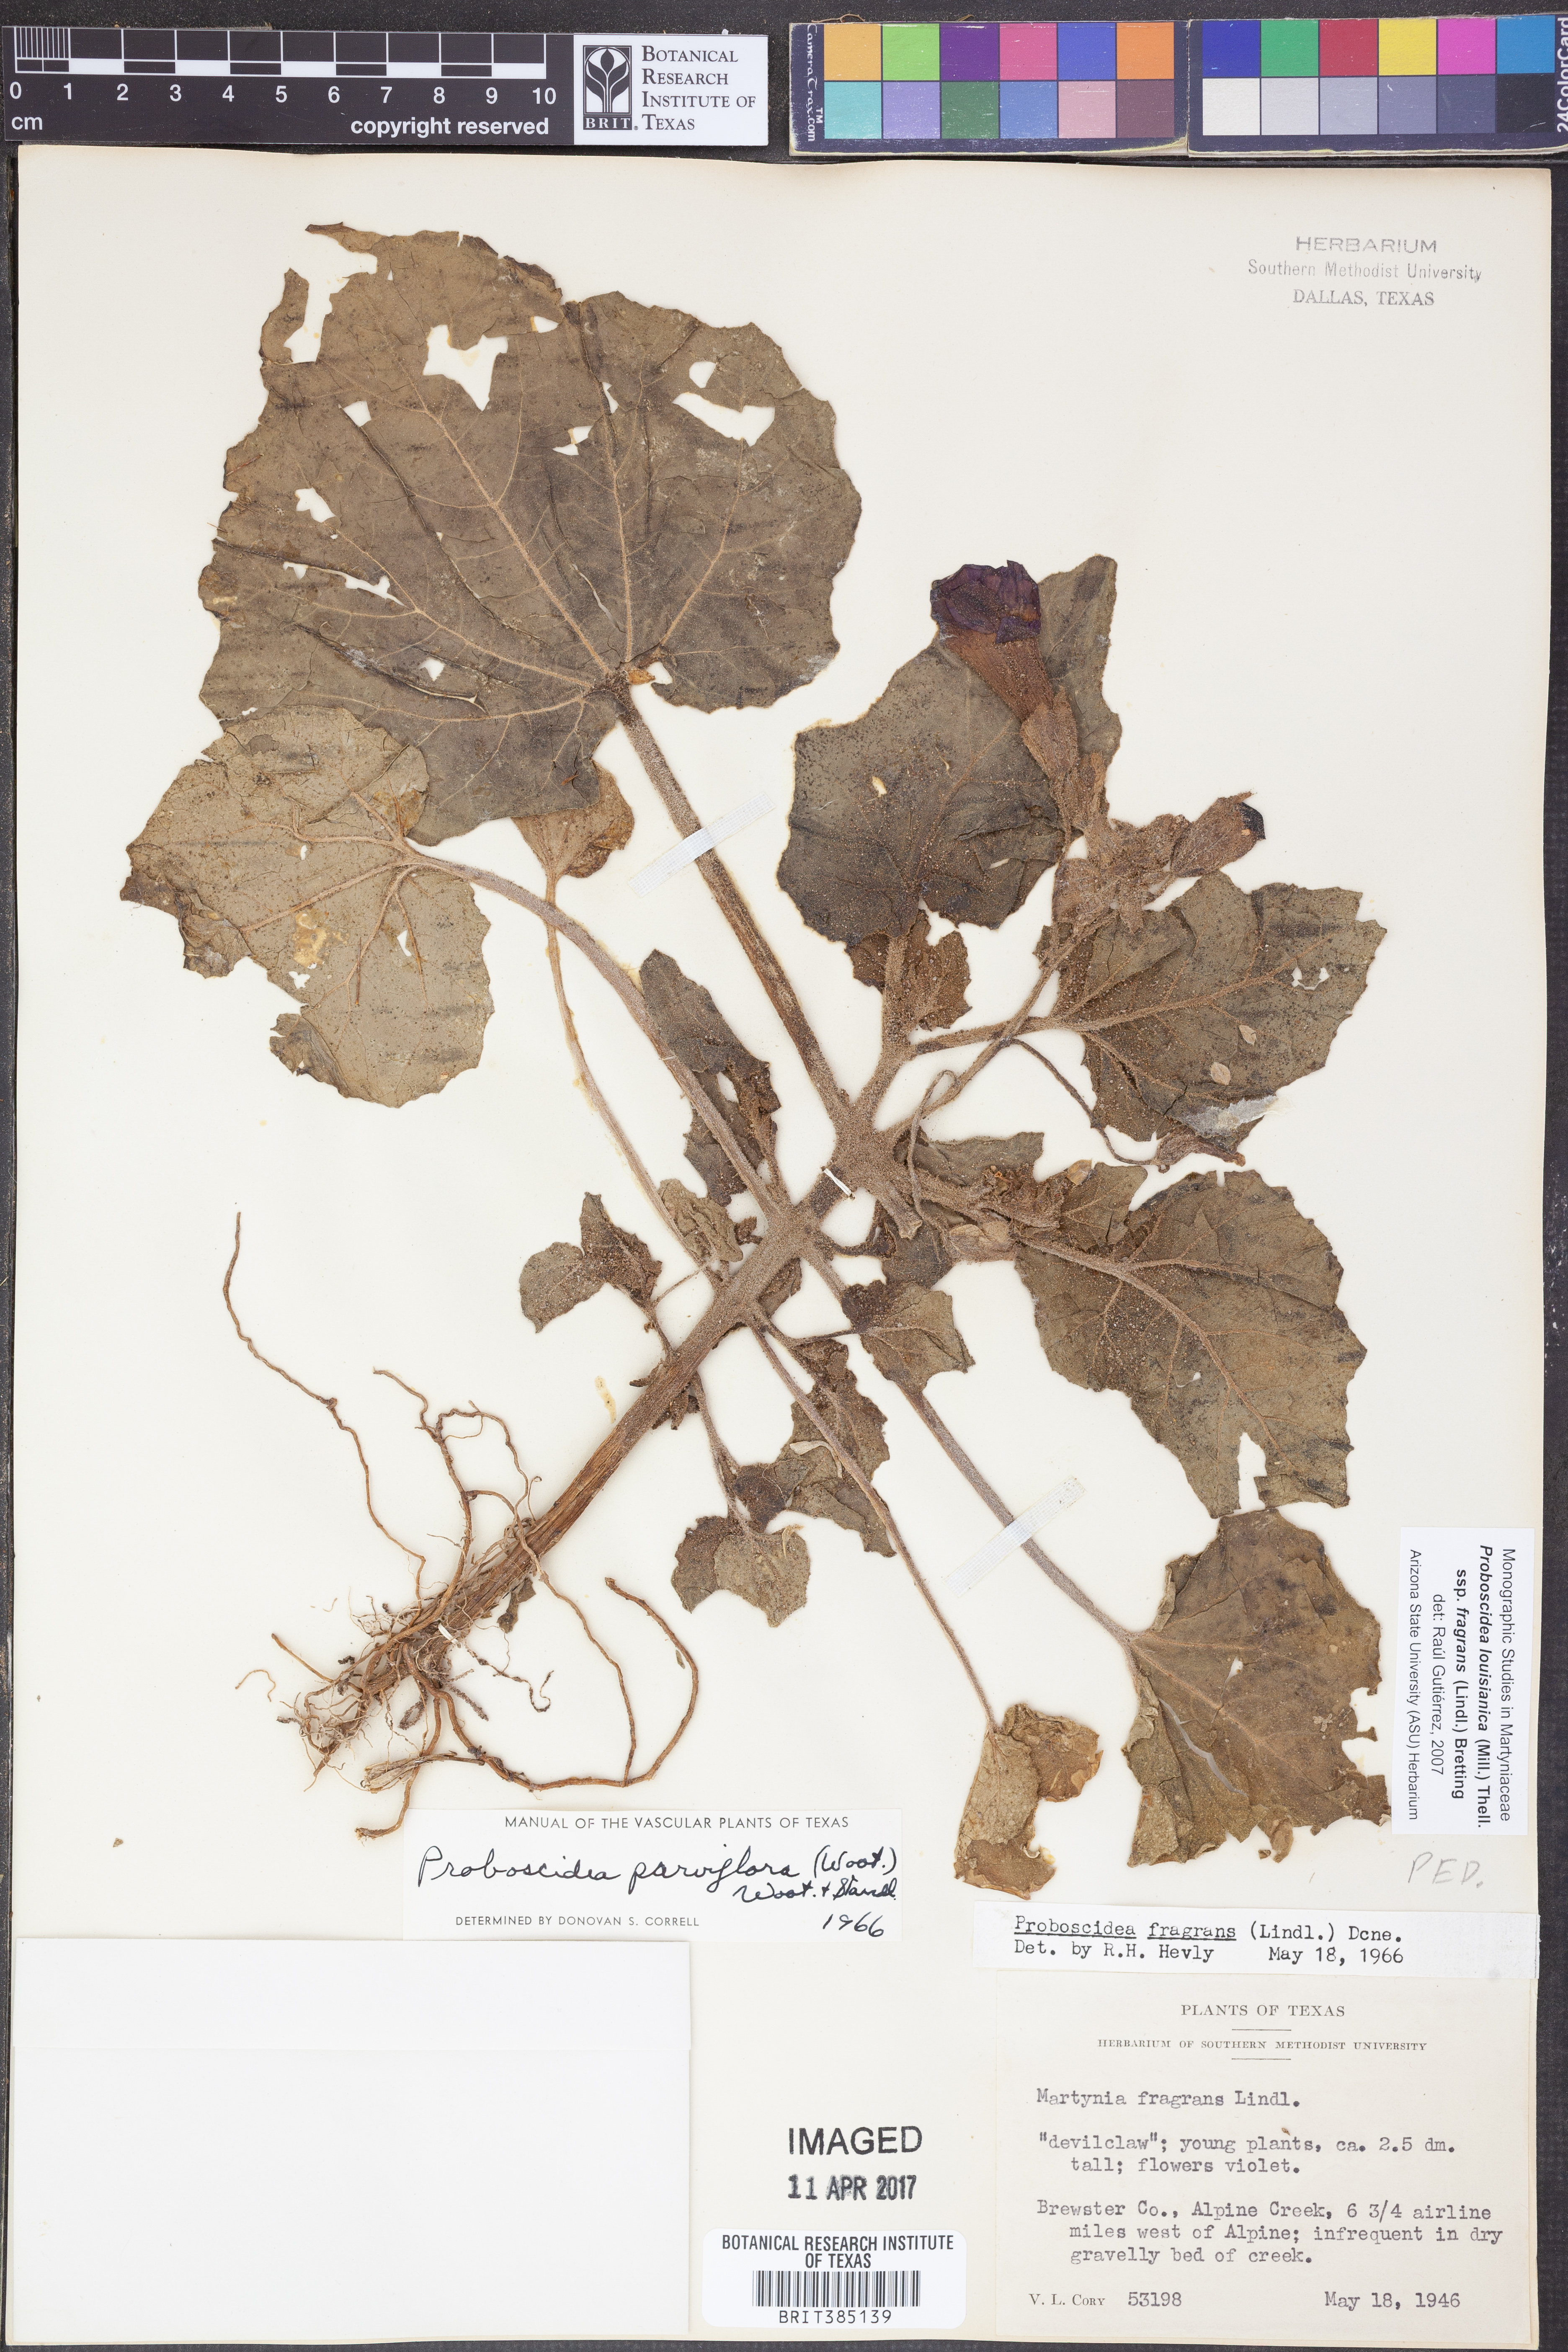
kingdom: Plantae
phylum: Tracheophyta
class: Magnoliopsida
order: Lamiales
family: Martyniaceae
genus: Proboscidea
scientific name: Proboscidea louisianica
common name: Elephant tusks
